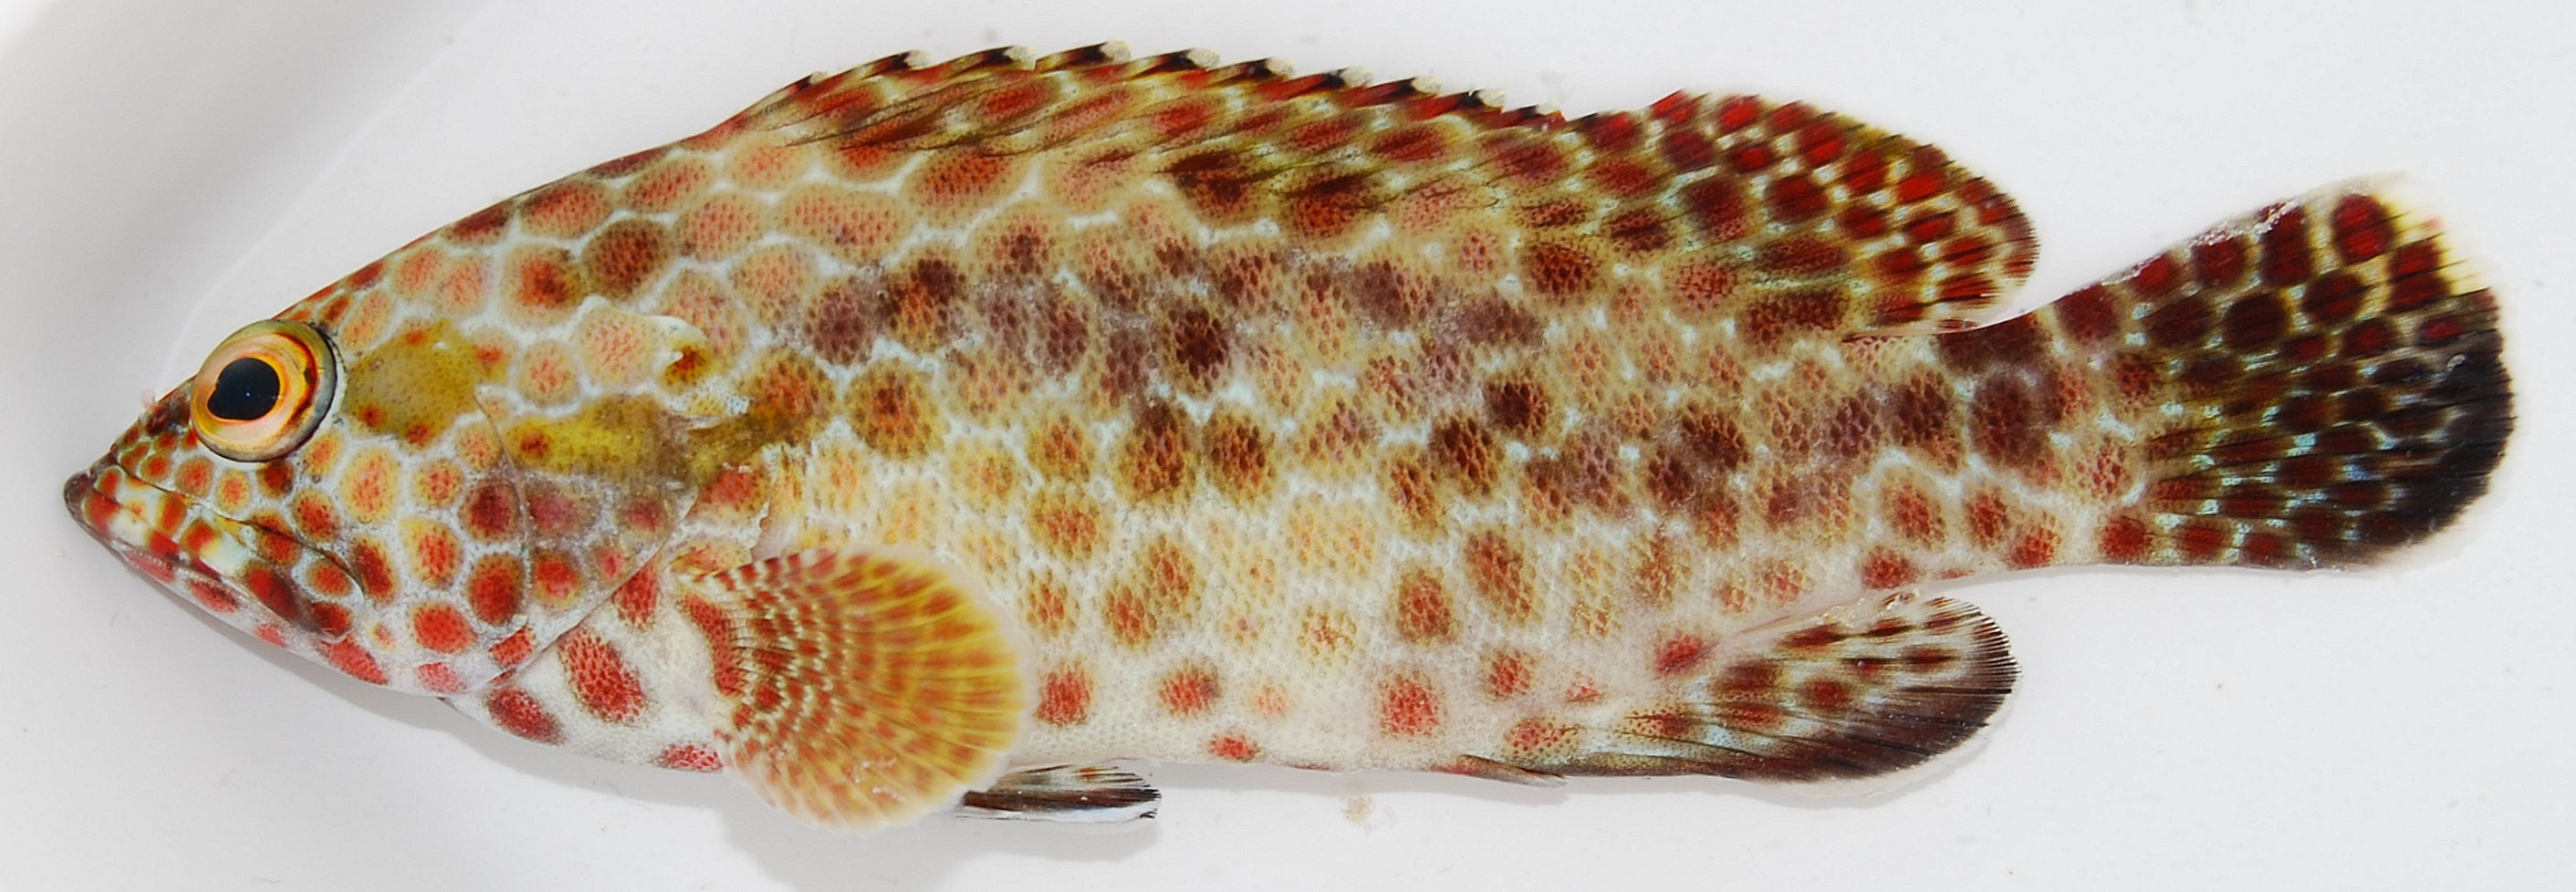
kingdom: Animalia
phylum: Chordata
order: Perciformes
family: Serranidae
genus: Epinephelus
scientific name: Epinephelus hexagonatus
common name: Hexagon grouper
